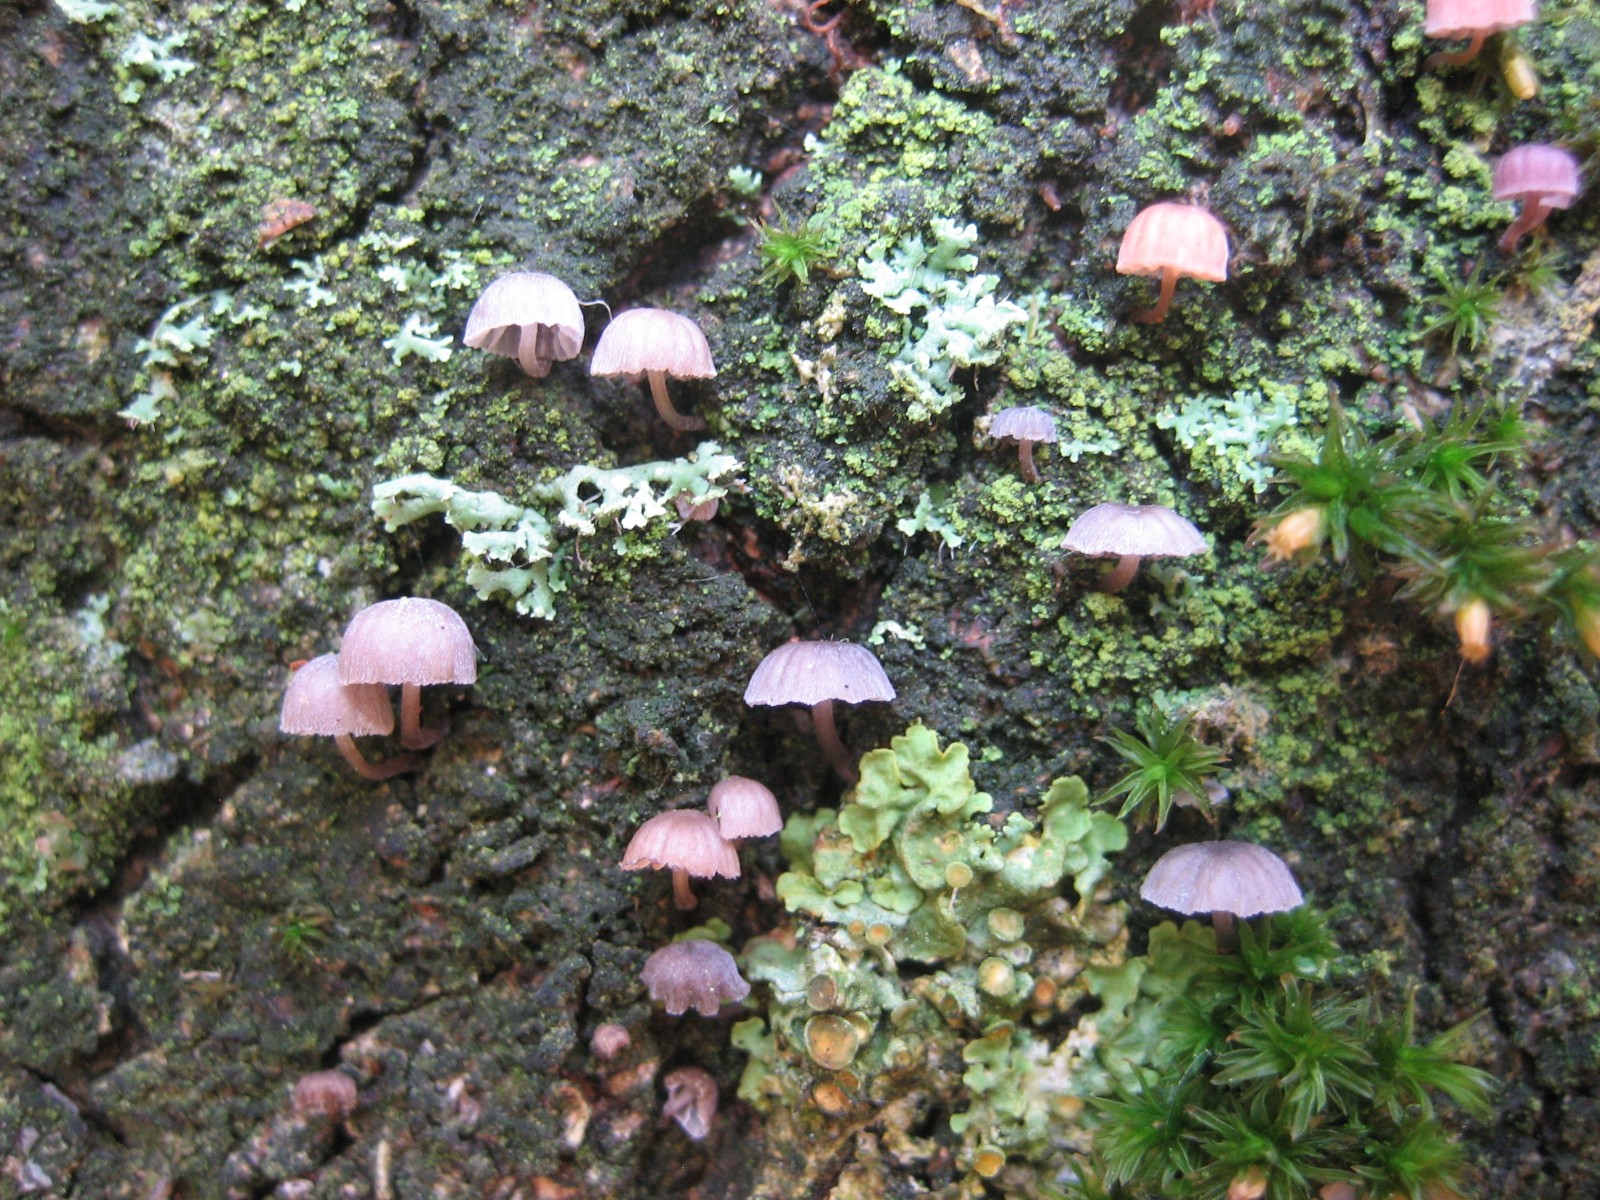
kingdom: Fungi
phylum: Basidiomycota
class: Agaricomycetes
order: Agaricales
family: Mycenaceae
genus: Mycena
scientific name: Mycena meliigena
